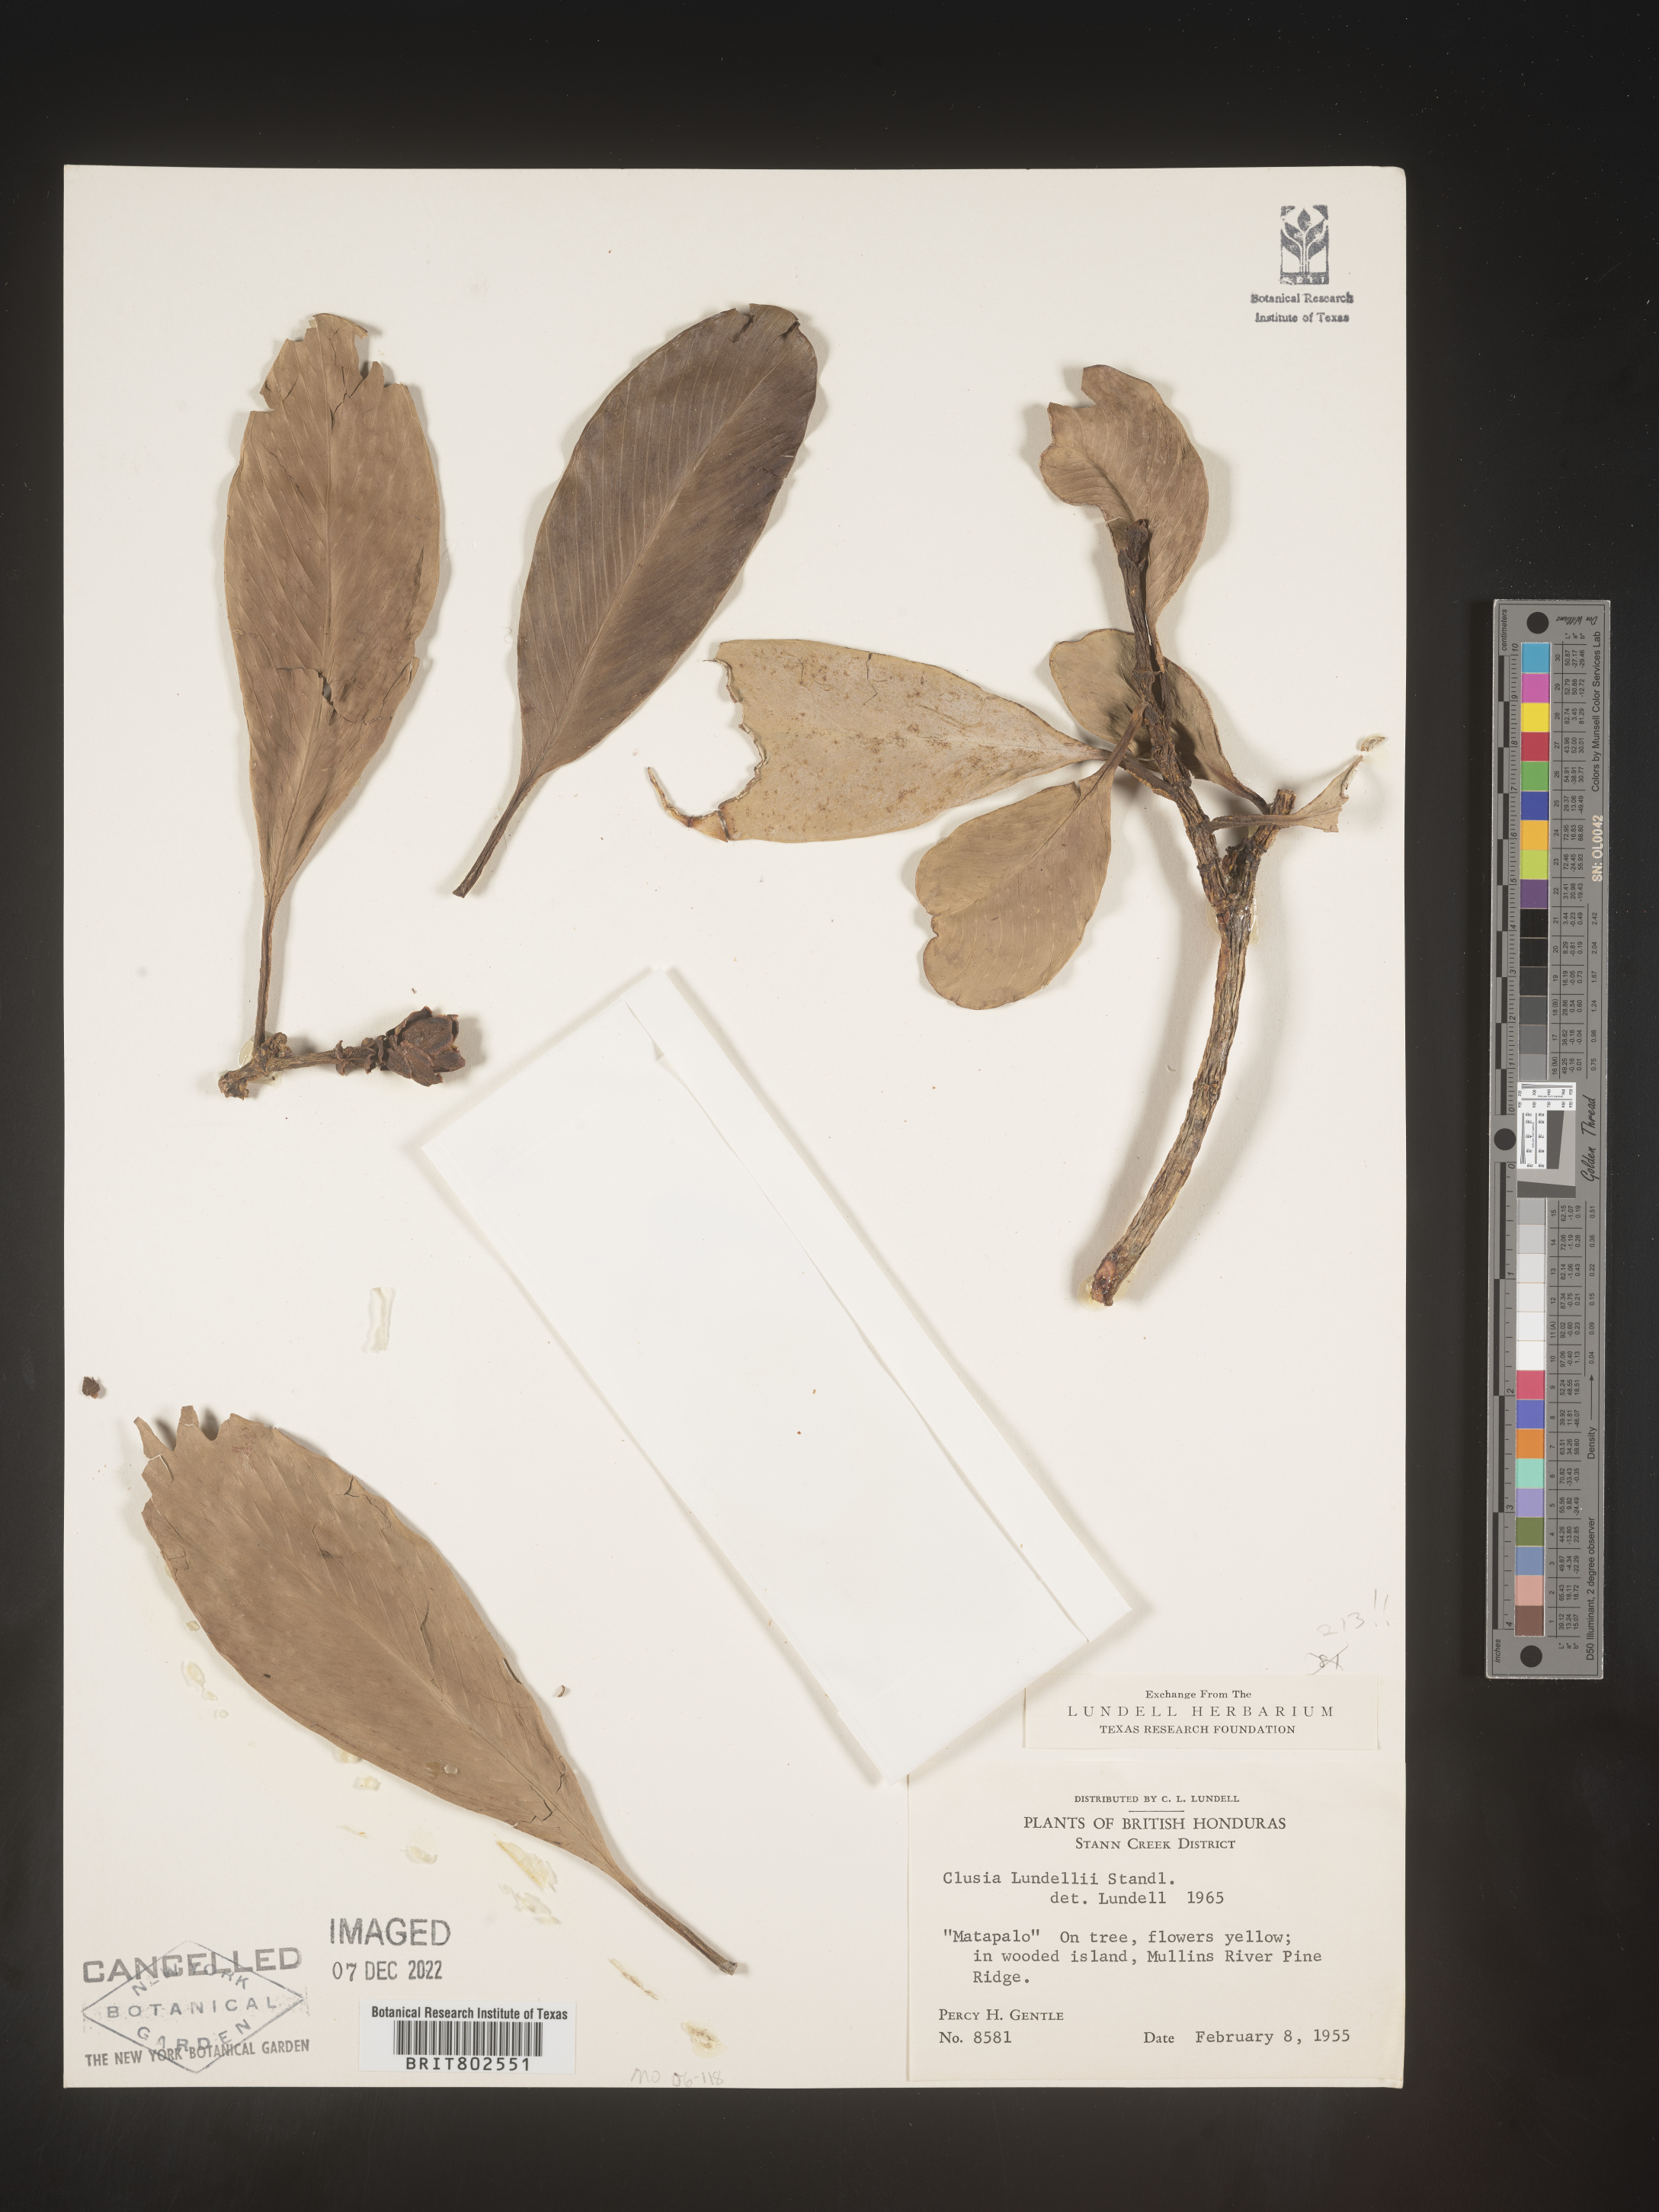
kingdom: Plantae
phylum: Tracheophyta
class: Magnoliopsida
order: Malpighiales
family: Clusiaceae
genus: Clusia
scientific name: Clusia
